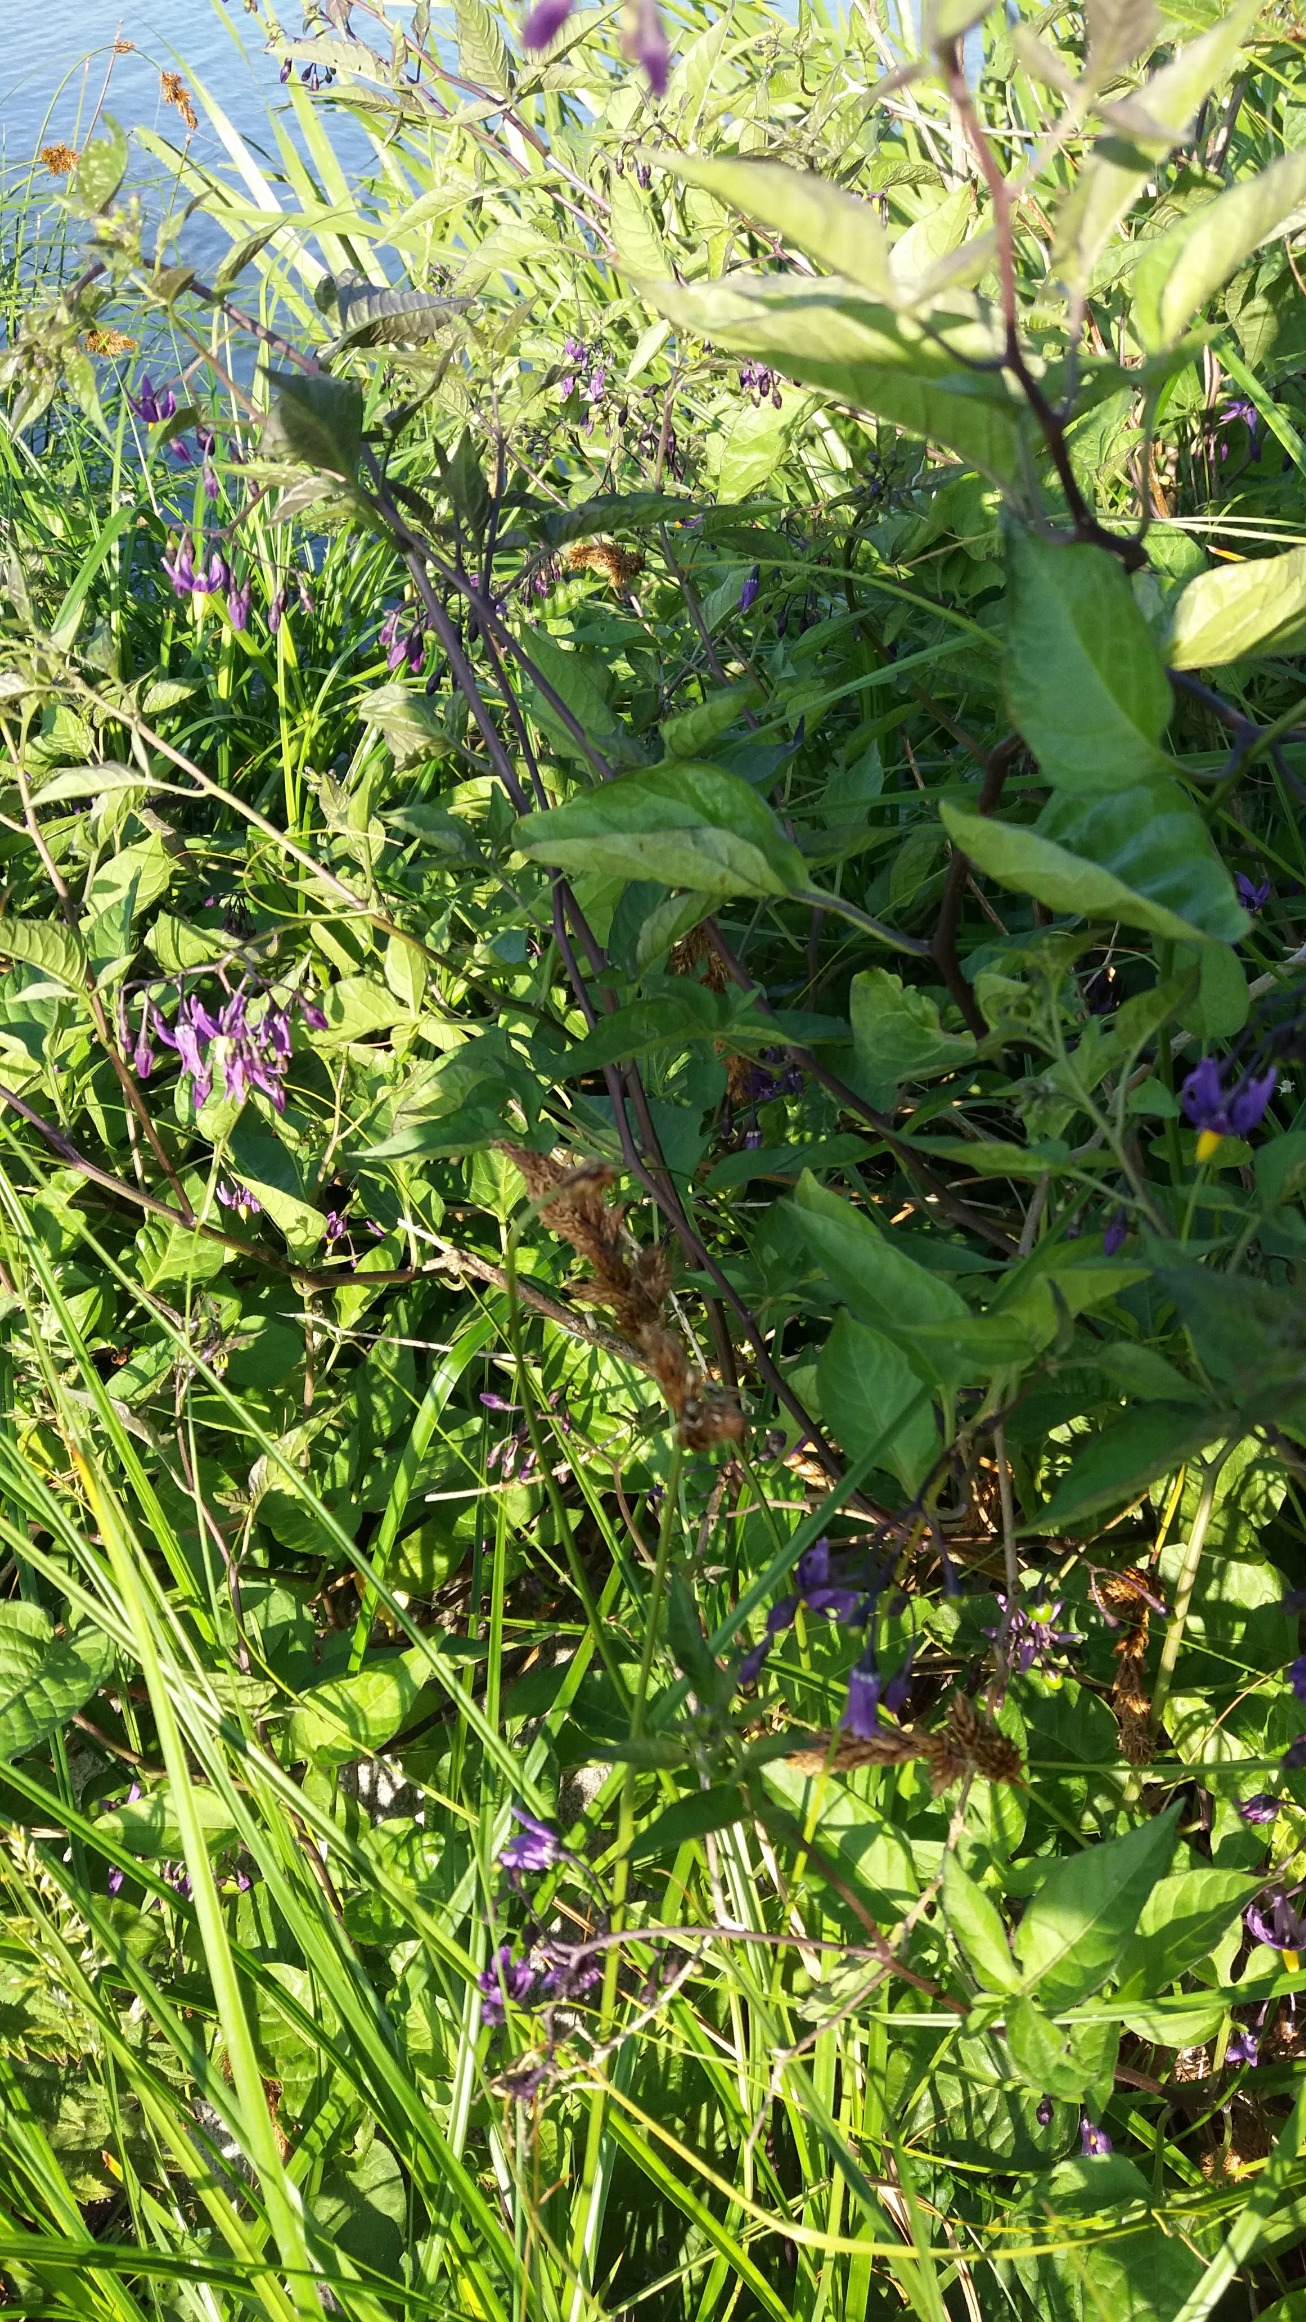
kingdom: Plantae
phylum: Tracheophyta
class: Magnoliopsida
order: Solanales
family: Solanaceae
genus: Solanum
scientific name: Solanum dulcamara
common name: Bittersød natskygge
